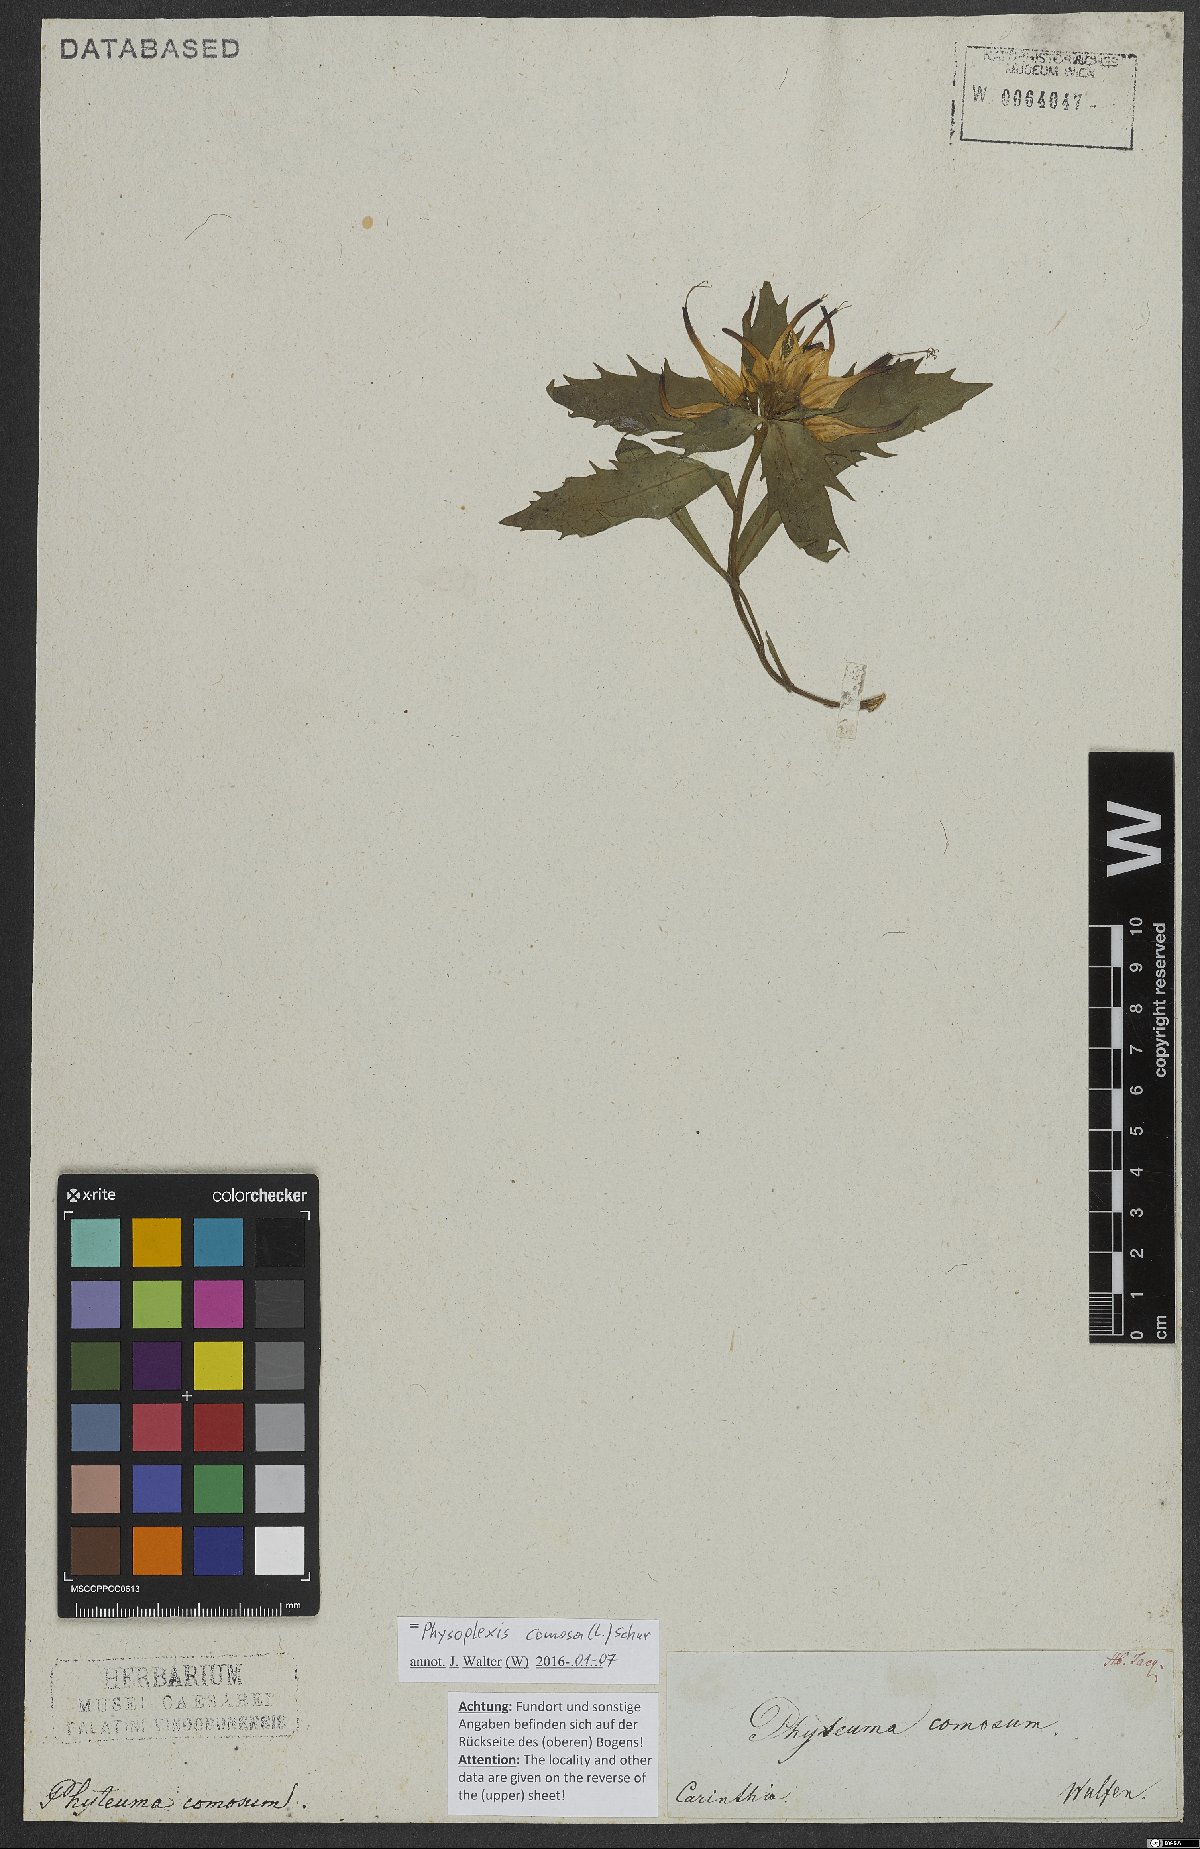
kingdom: Plantae
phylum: Tracheophyta
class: Magnoliopsida
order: Asterales
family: Campanulaceae
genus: Physoplexis
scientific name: Physoplexis comosa
